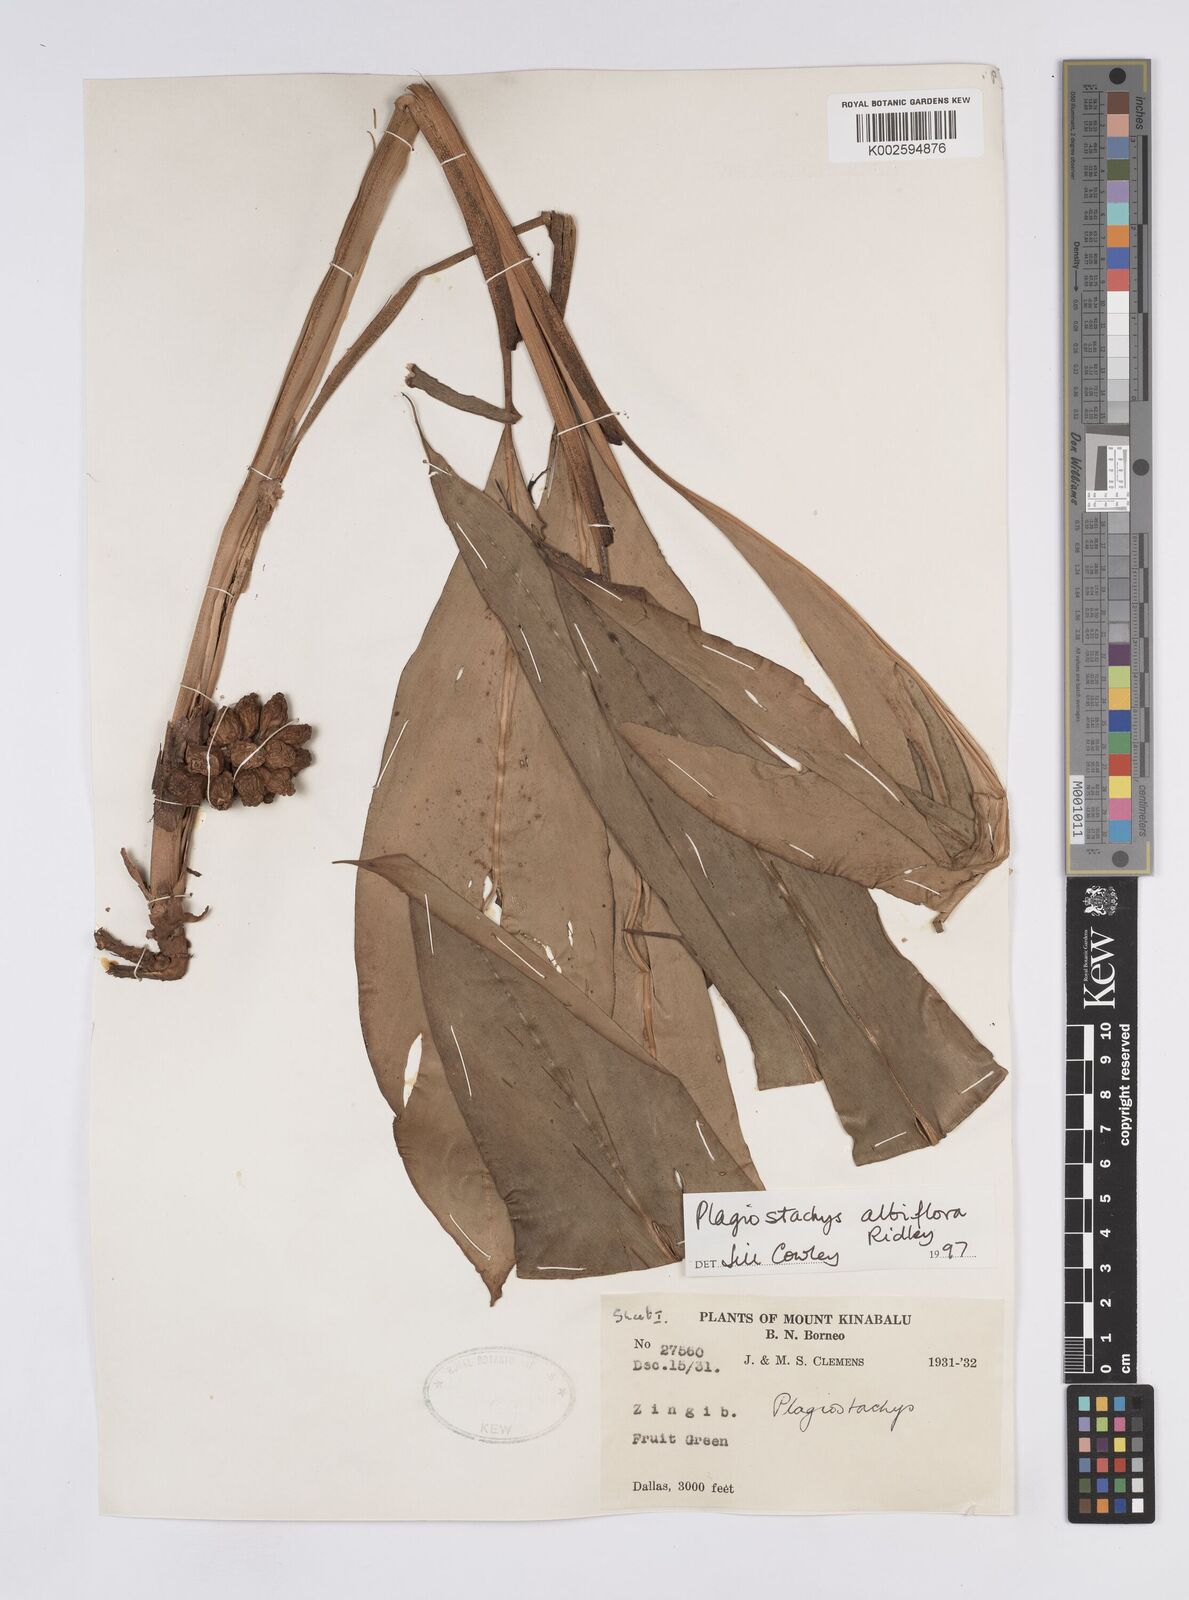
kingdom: Plantae
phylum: Tracheophyta
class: Liliopsida
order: Zingiberales
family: Zingiberaceae
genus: Plagiostachys
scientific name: Plagiostachys albiflora
